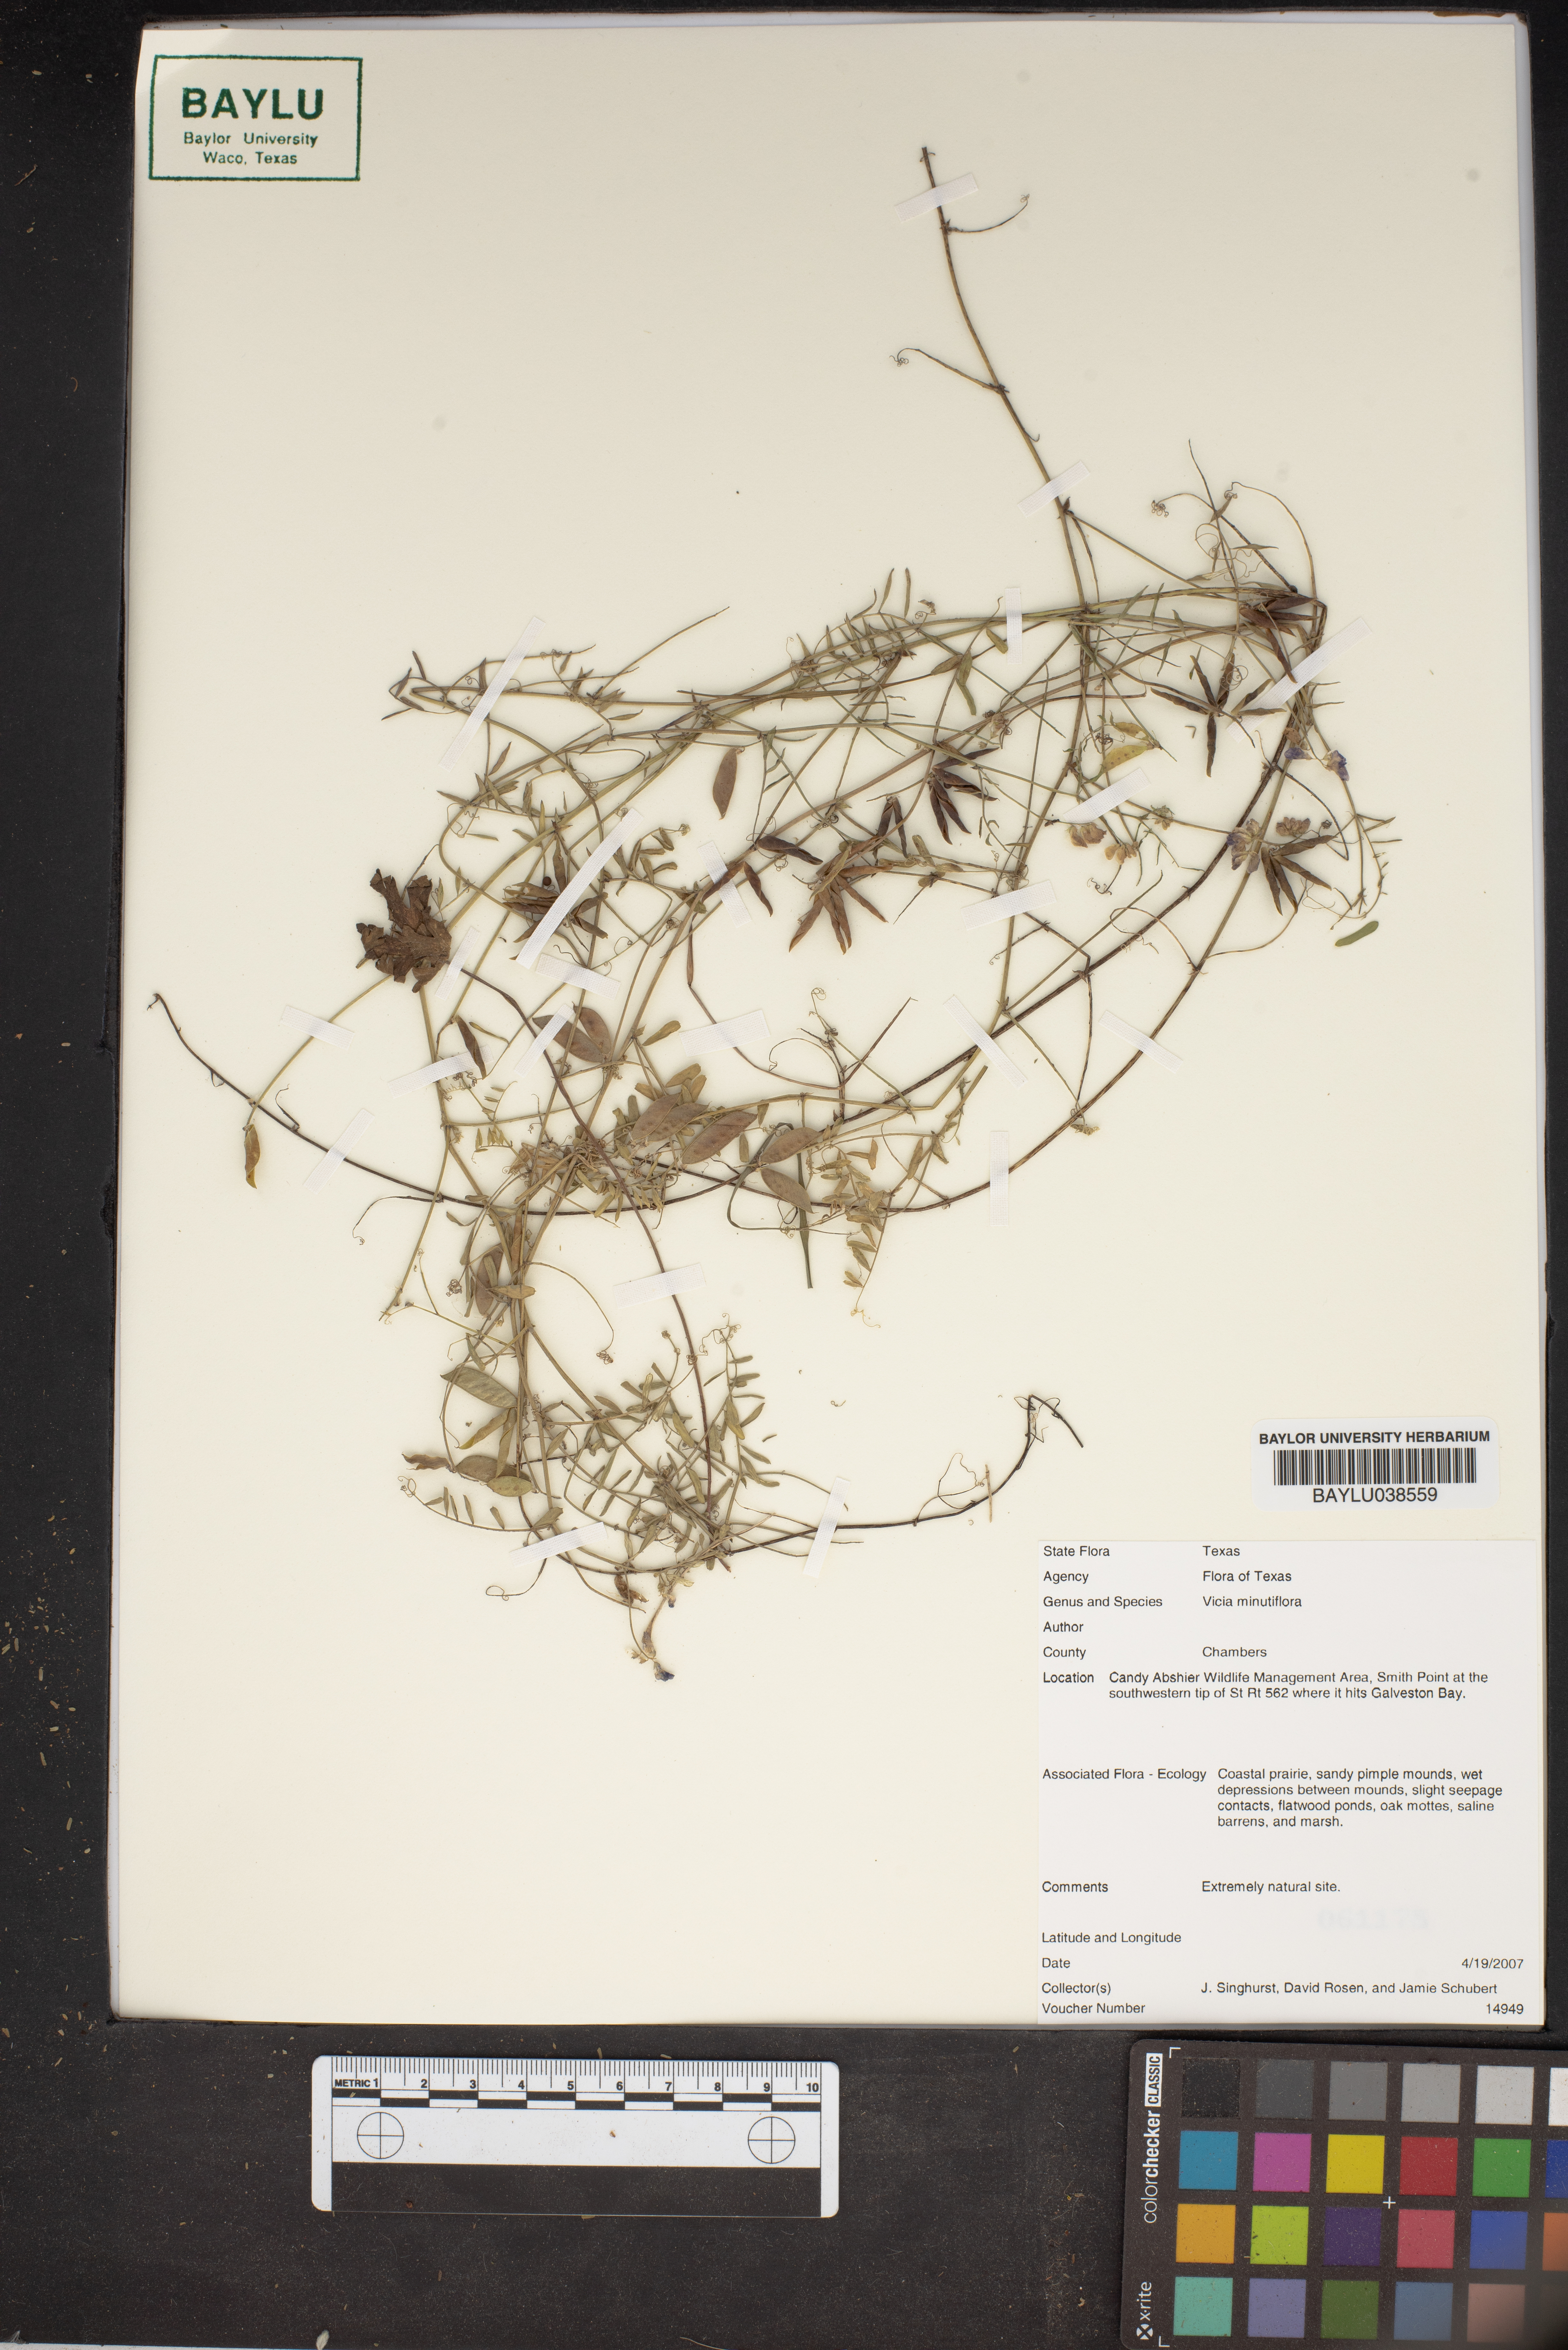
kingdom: Plantae
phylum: Tracheophyta
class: Magnoliopsida
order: Fabales
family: Fabaceae
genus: Vicia
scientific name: Vicia minutiflora
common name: Pygmy-flower vetch
